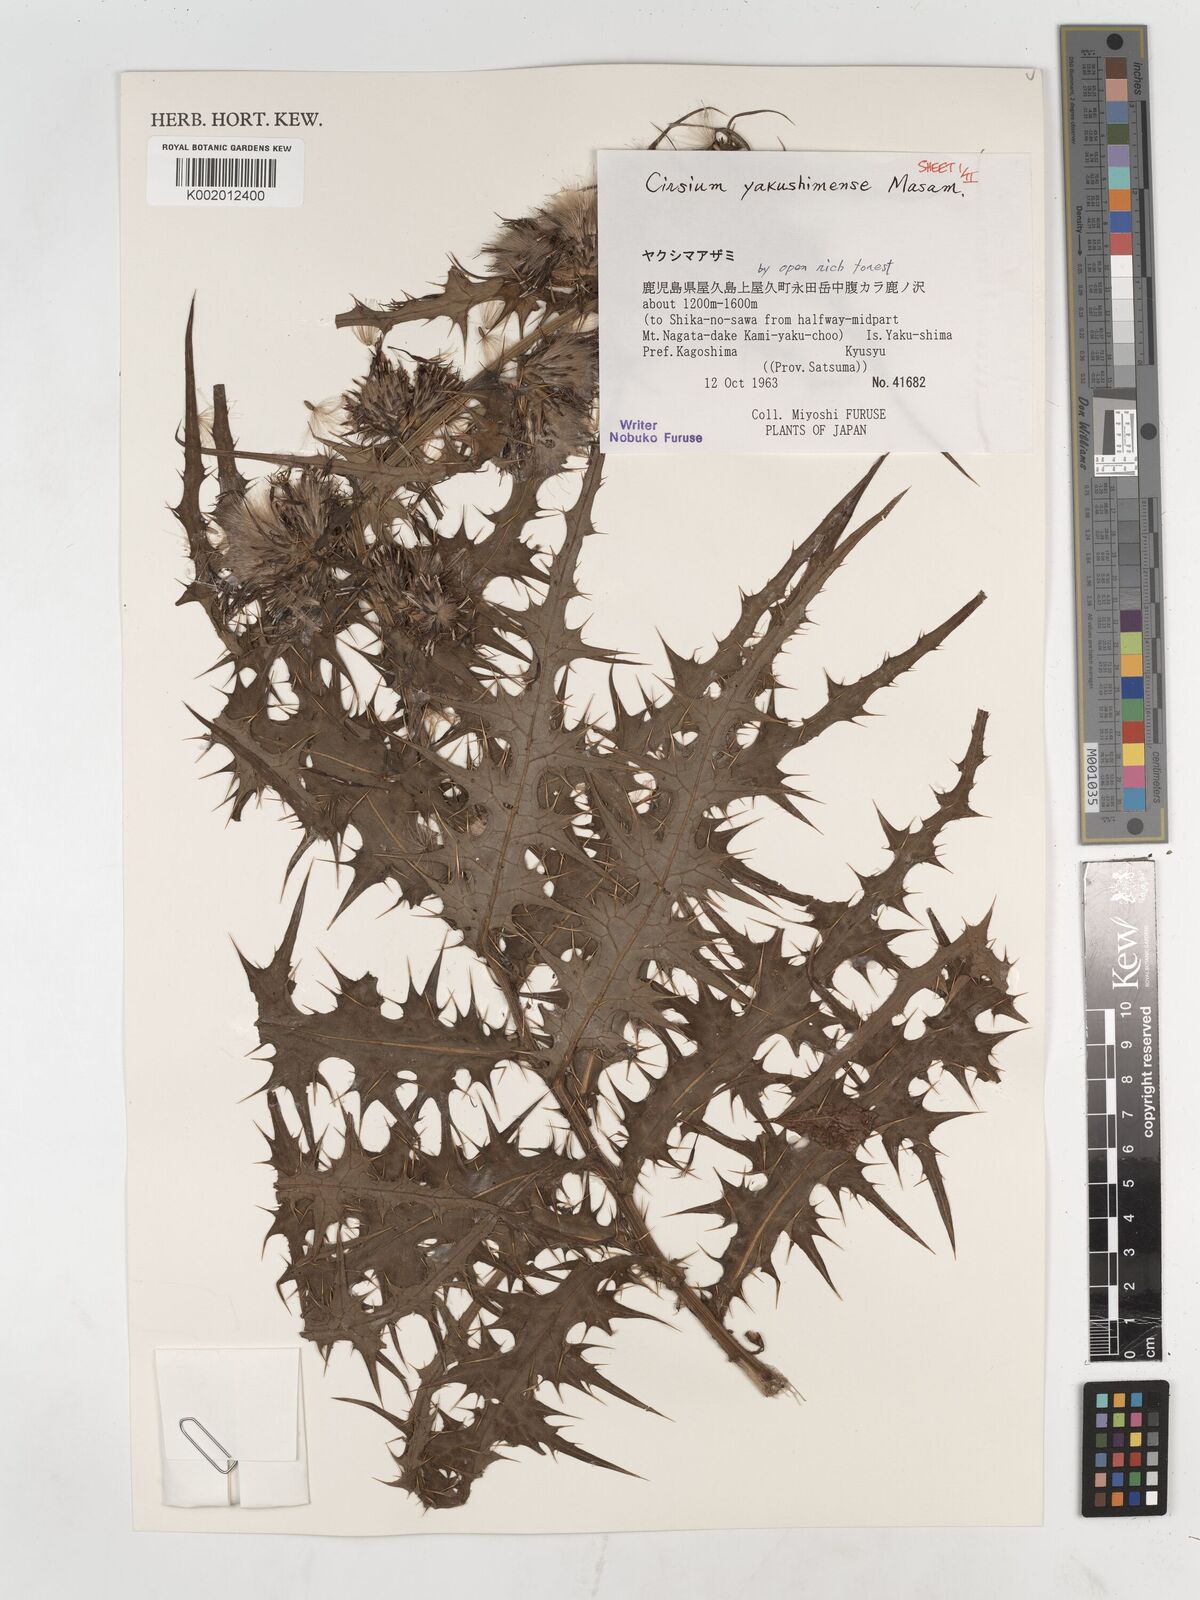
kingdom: Plantae
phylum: Tracheophyta
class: Magnoliopsida
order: Asterales
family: Asteraceae
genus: Cirsium
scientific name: Cirsium yakusimense
